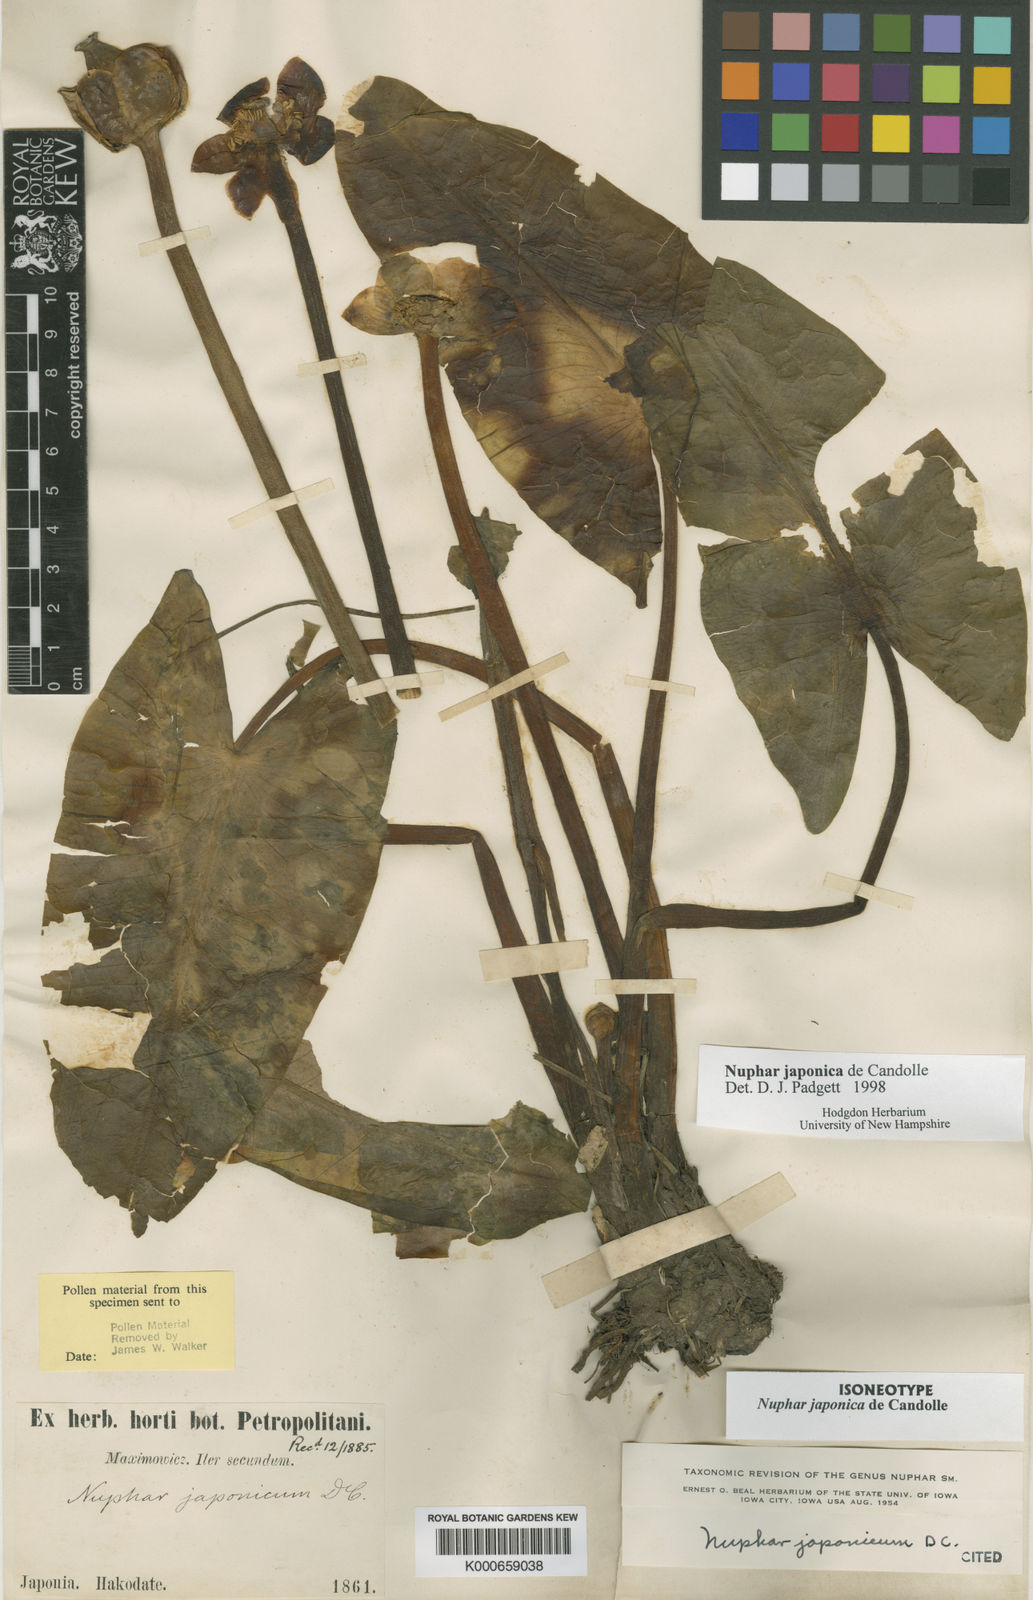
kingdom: Plantae
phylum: Tracheophyta
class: Magnoliopsida
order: Nymphaeales
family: Nymphaeaceae
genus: Nuphar
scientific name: Nuphar japonica
